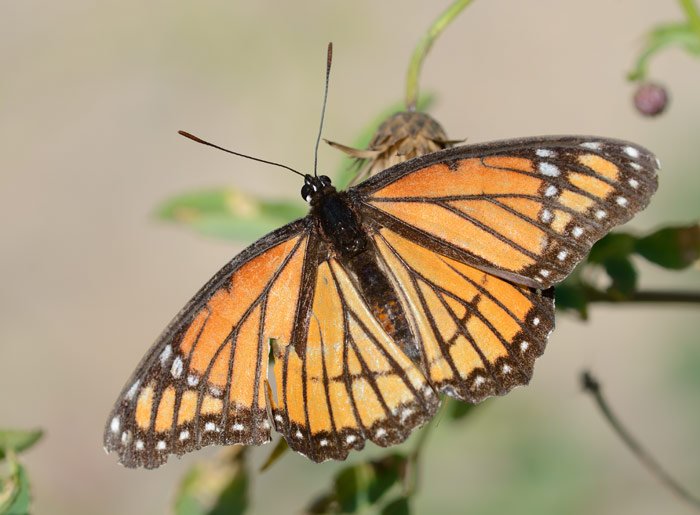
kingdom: Animalia
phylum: Arthropoda
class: Insecta
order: Lepidoptera
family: Nymphalidae
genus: Limenitis
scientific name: Limenitis archippus
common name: Viceroy
